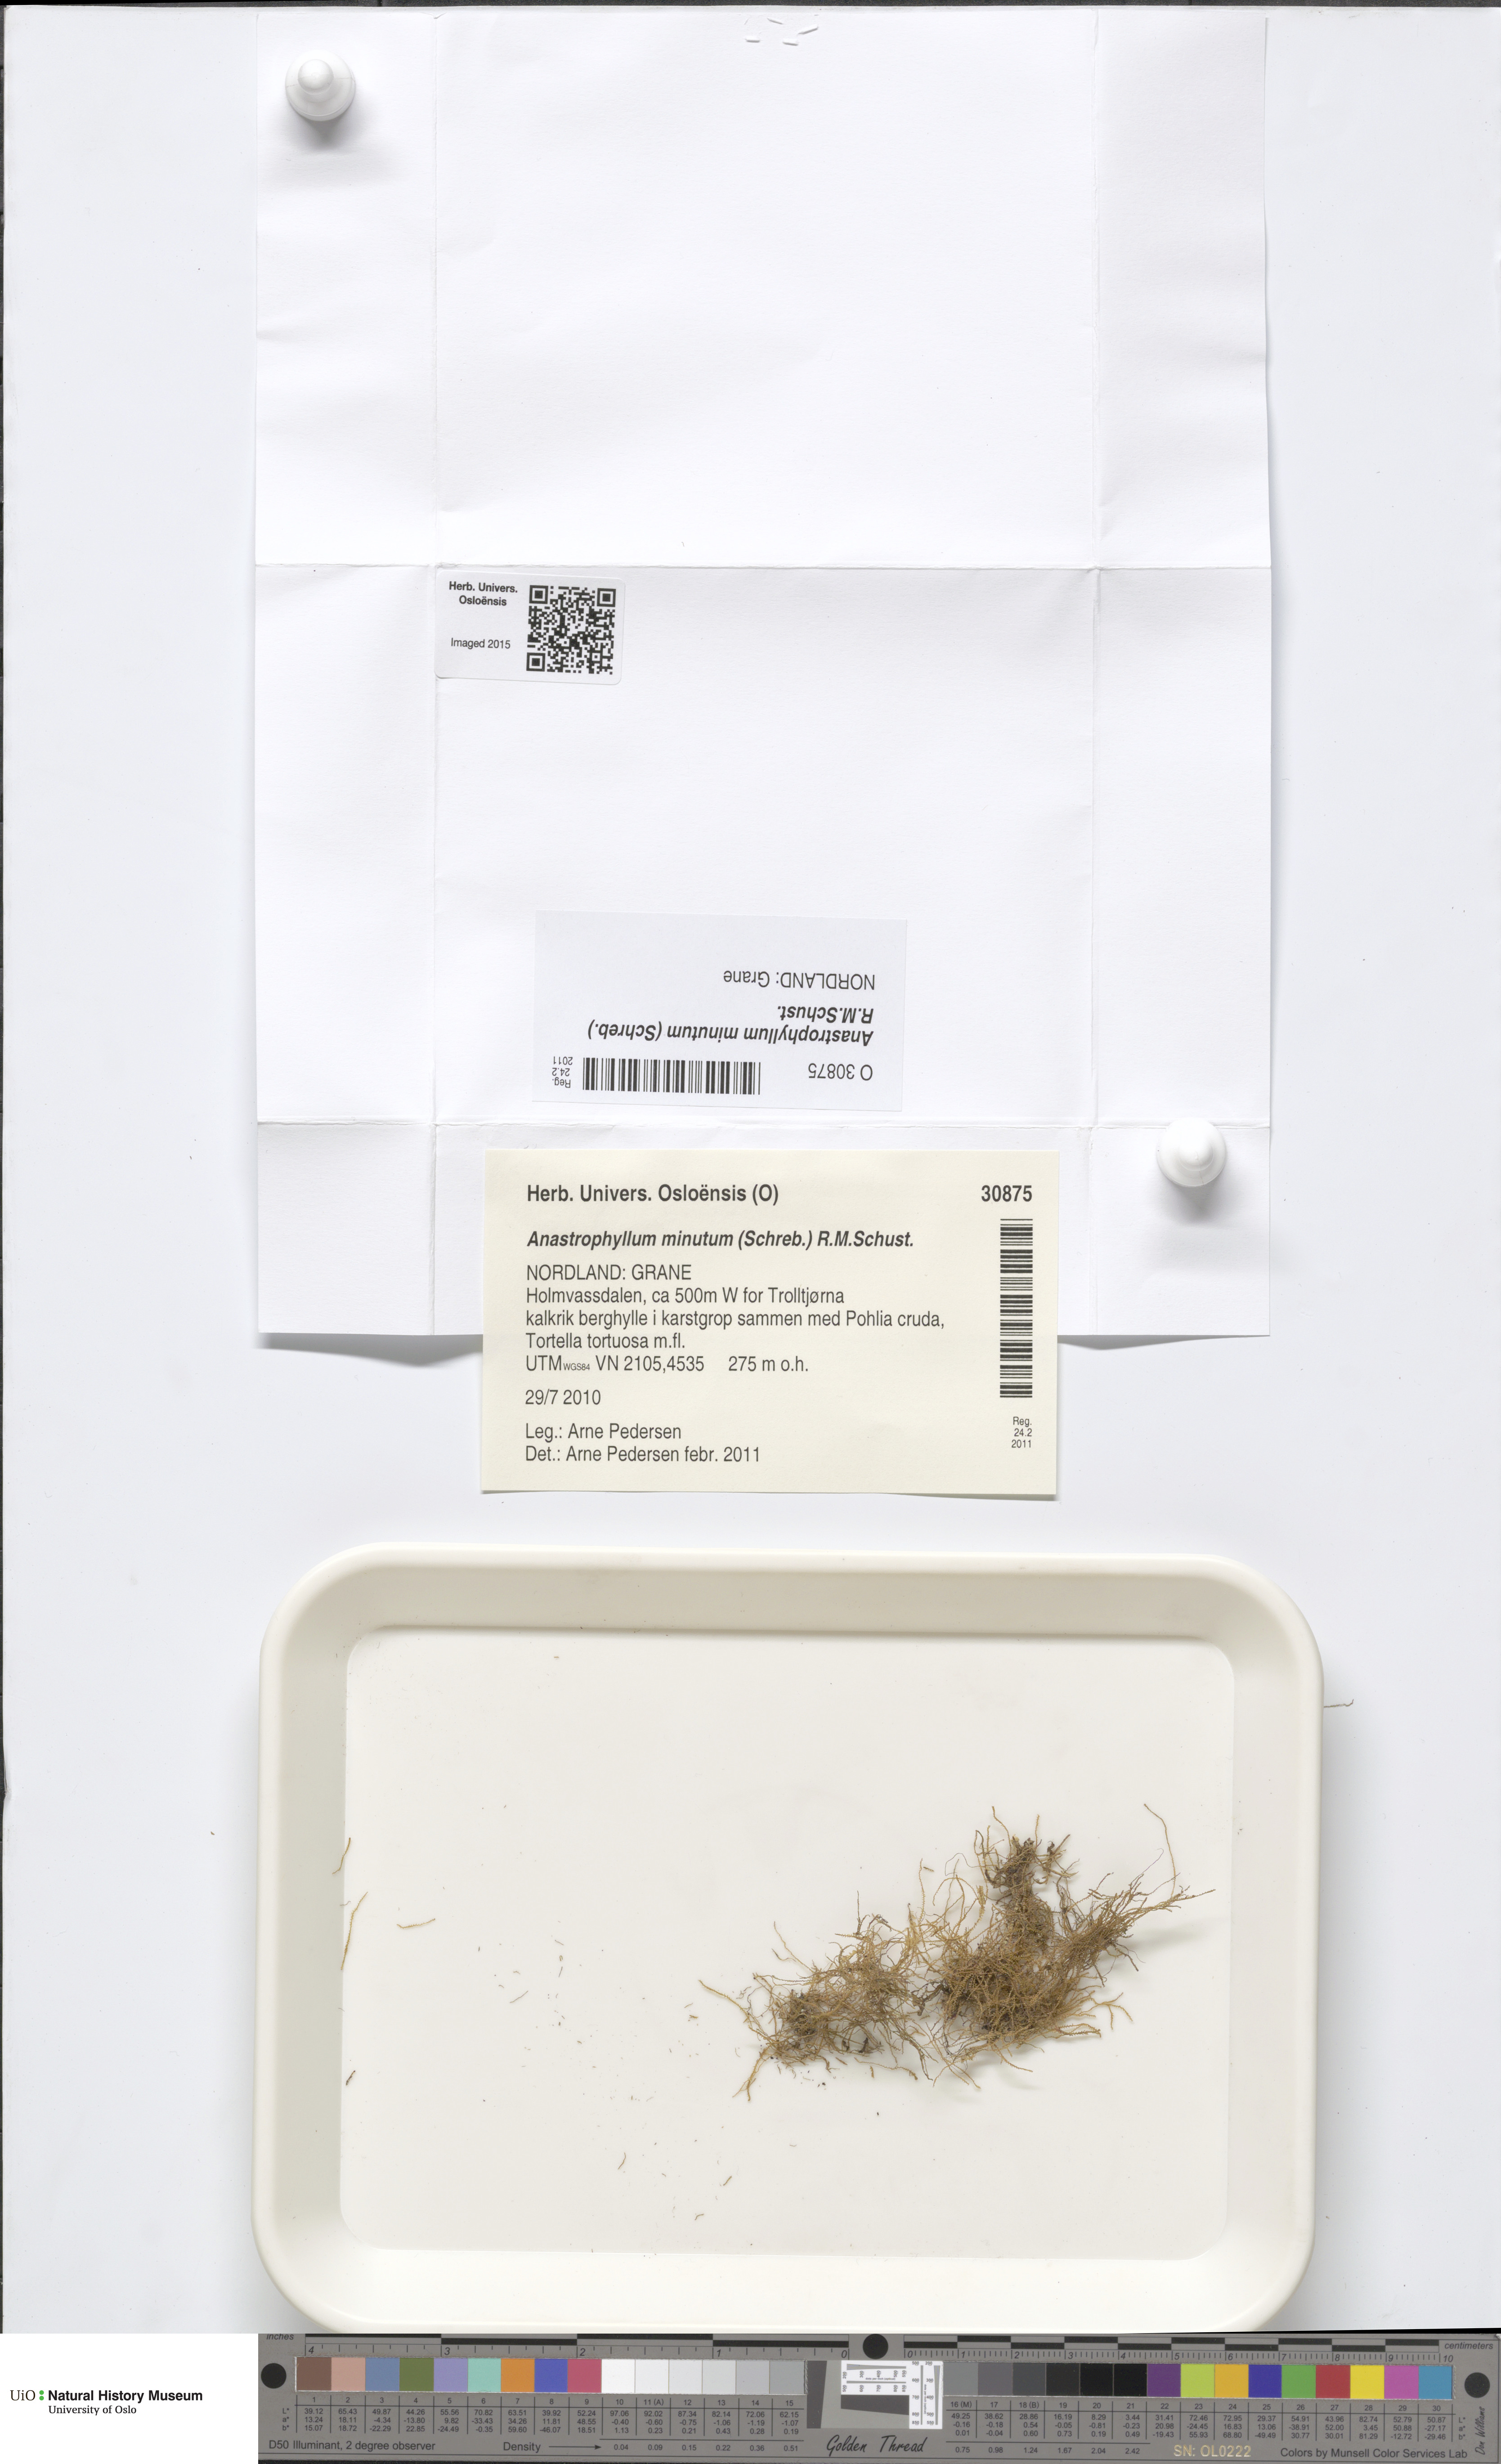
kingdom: Plantae
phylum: Marchantiophyta
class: Jungermanniopsida
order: Jungermanniales
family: Anastrophyllaceae
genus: Sphenolobus
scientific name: Sphenolobus minutus
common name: Comb notchwort
